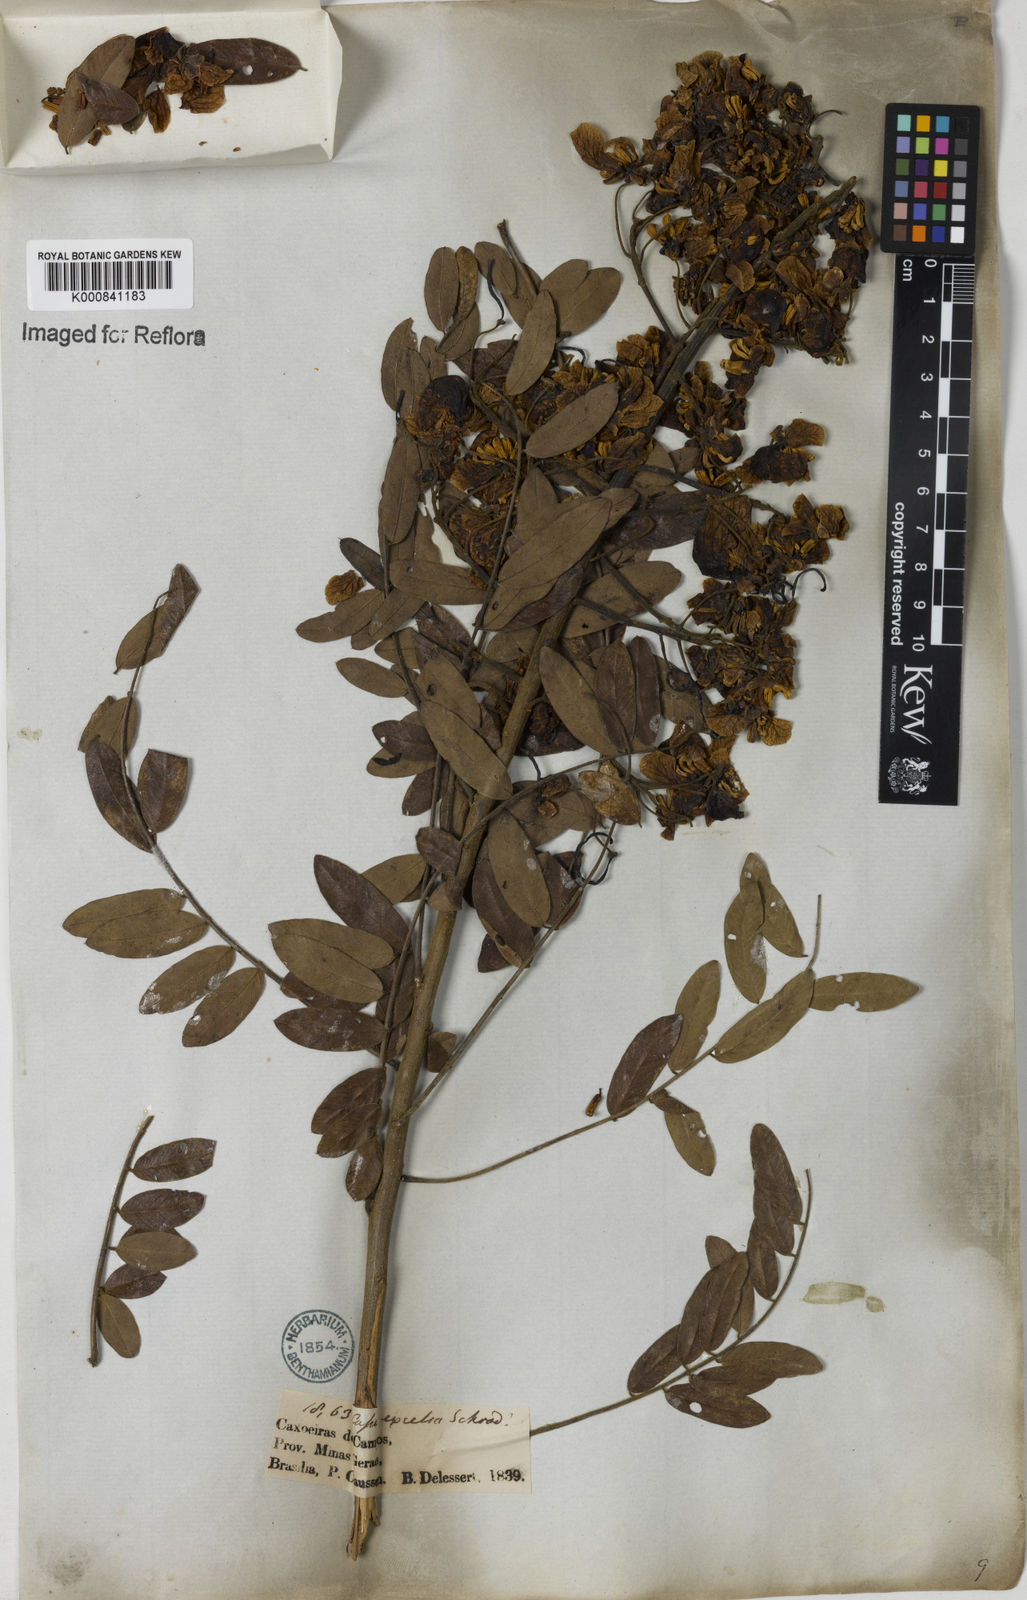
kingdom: Plantae
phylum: Tracheophyta
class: Magnoliopsida
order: Fabales
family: Fabaceae
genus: Senna
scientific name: Senna spectabilis
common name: Casia amarilla
